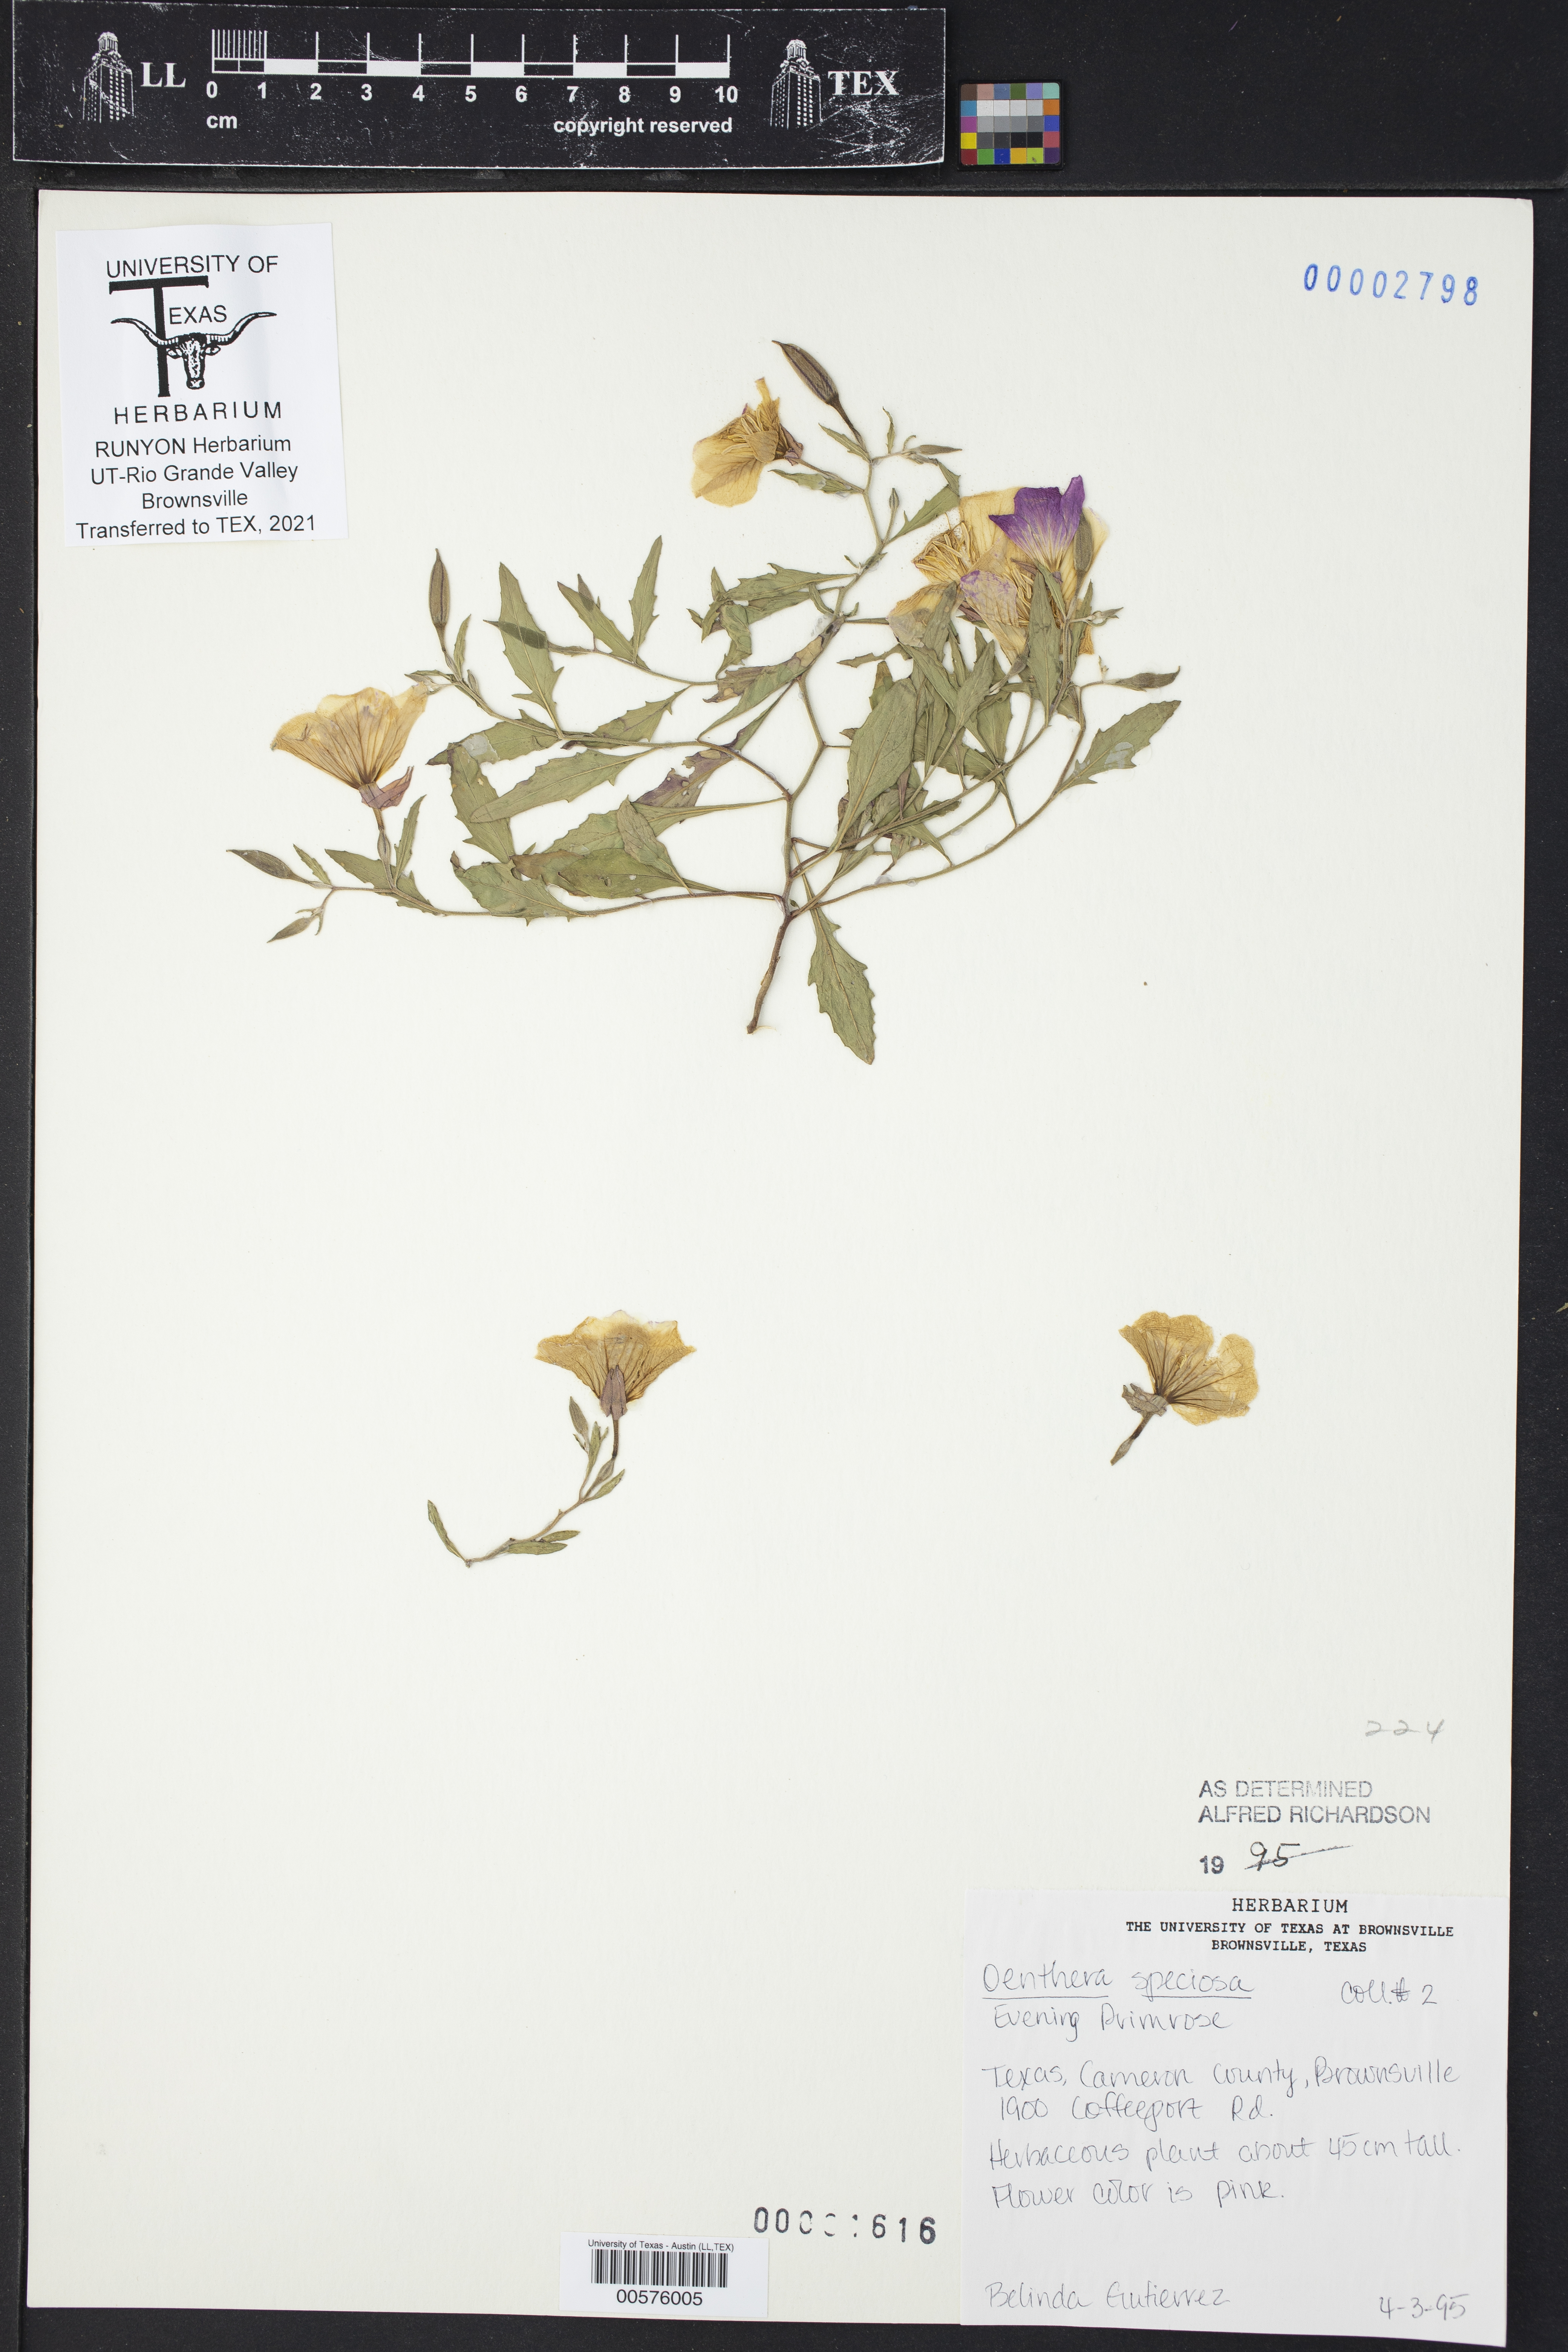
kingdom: Plantae
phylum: Tracheophyta
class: Magnoliopsida
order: Myrtales
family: Onagraceae
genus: Oenothera
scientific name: Oenothera speciosa
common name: White evening-primrose
